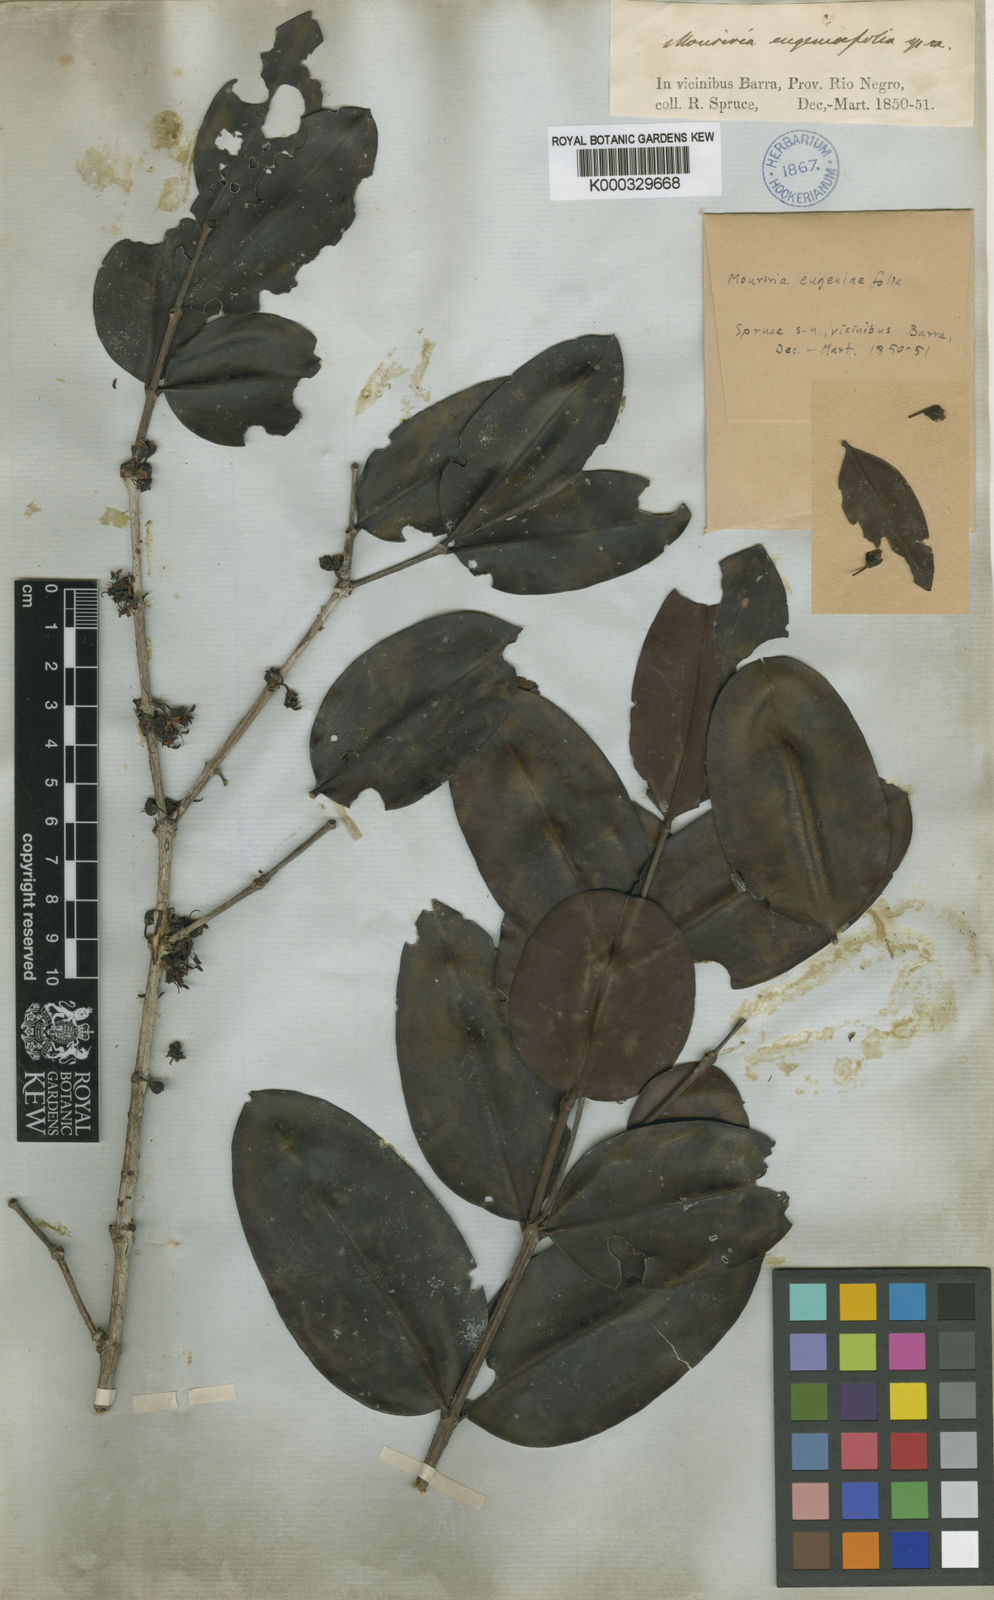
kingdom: Plantae
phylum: Tracheophyta
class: Magnoliopsida
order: Myrtales
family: Melastomataceae
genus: Mouriri
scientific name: Mouriri eugeniifolia
